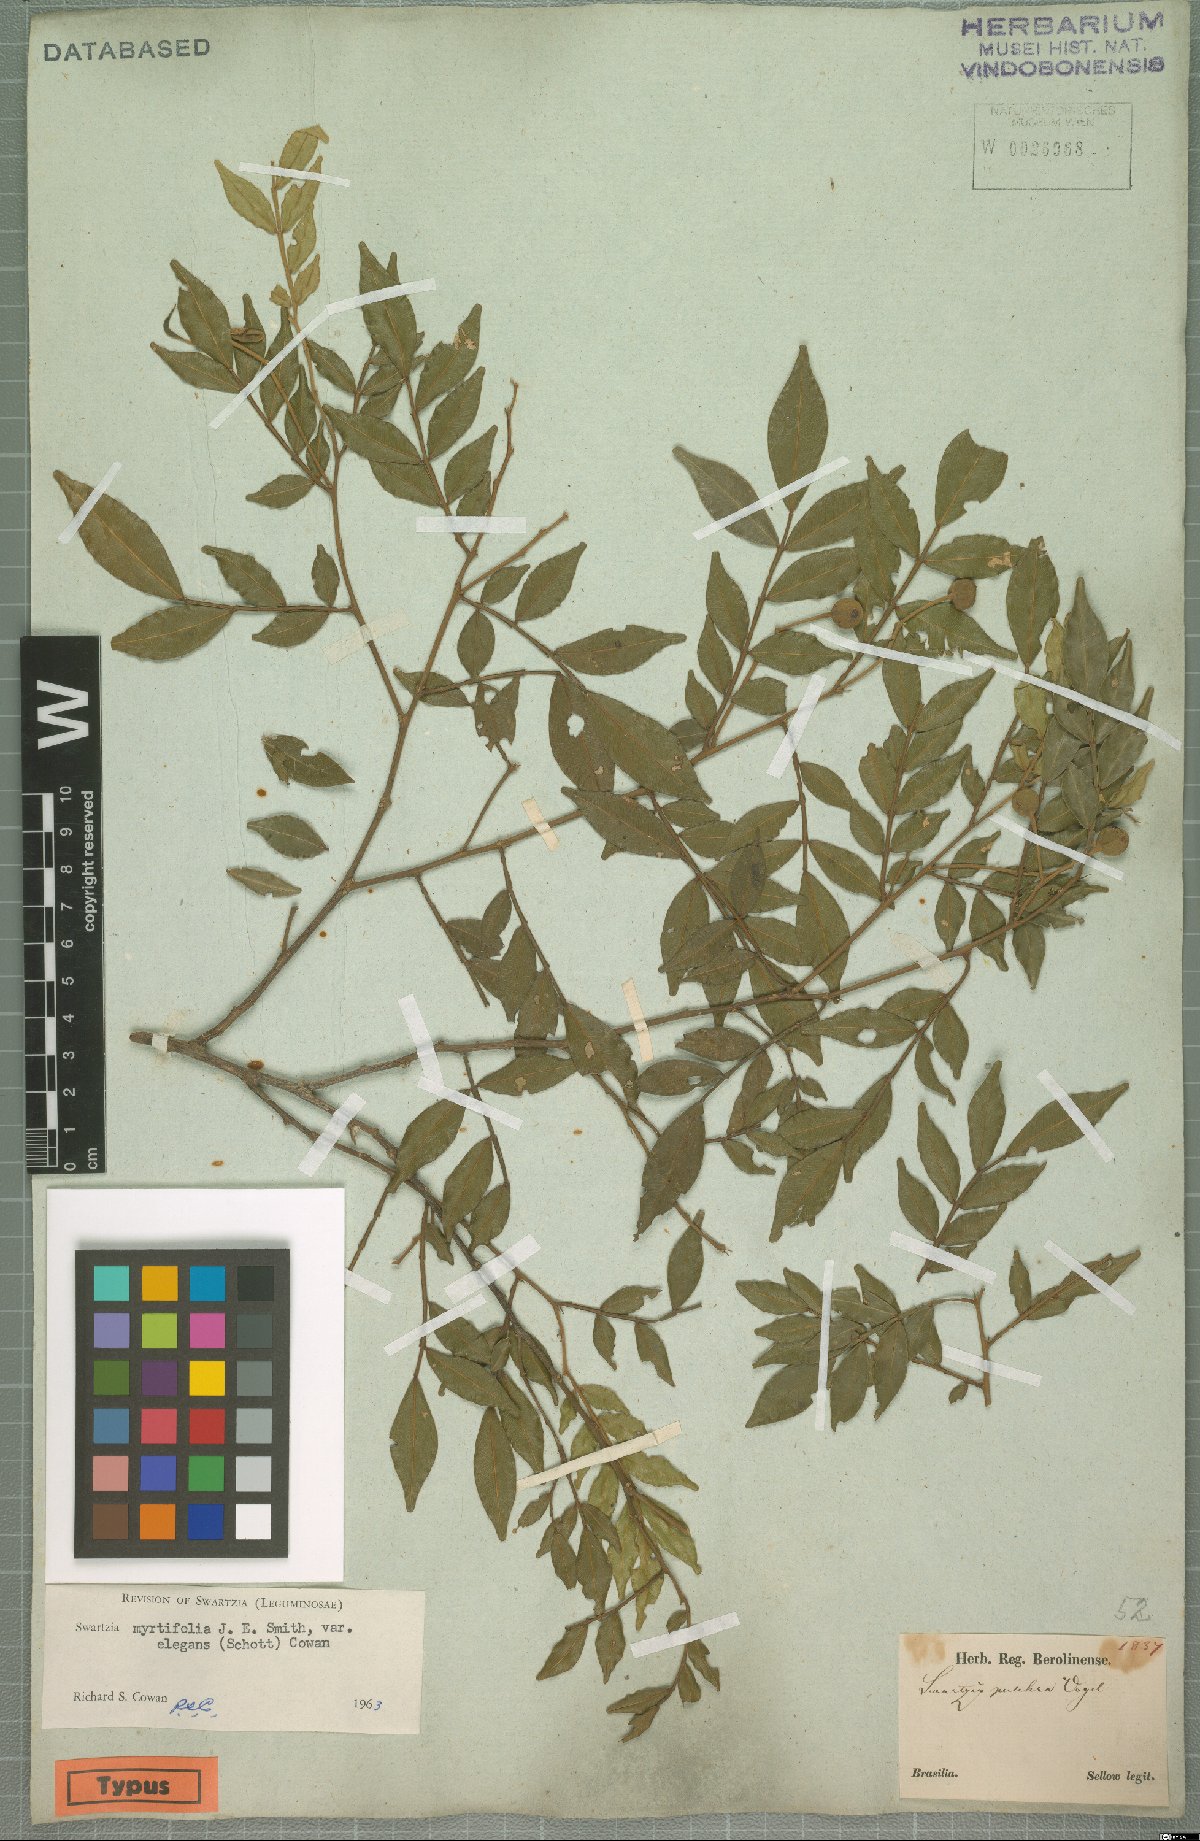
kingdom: Plantae
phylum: Tracheophyta
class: Magnoliopsida
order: Fabales
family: Fabaceae
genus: Swartzia
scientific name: Swartzia myrtifolia
